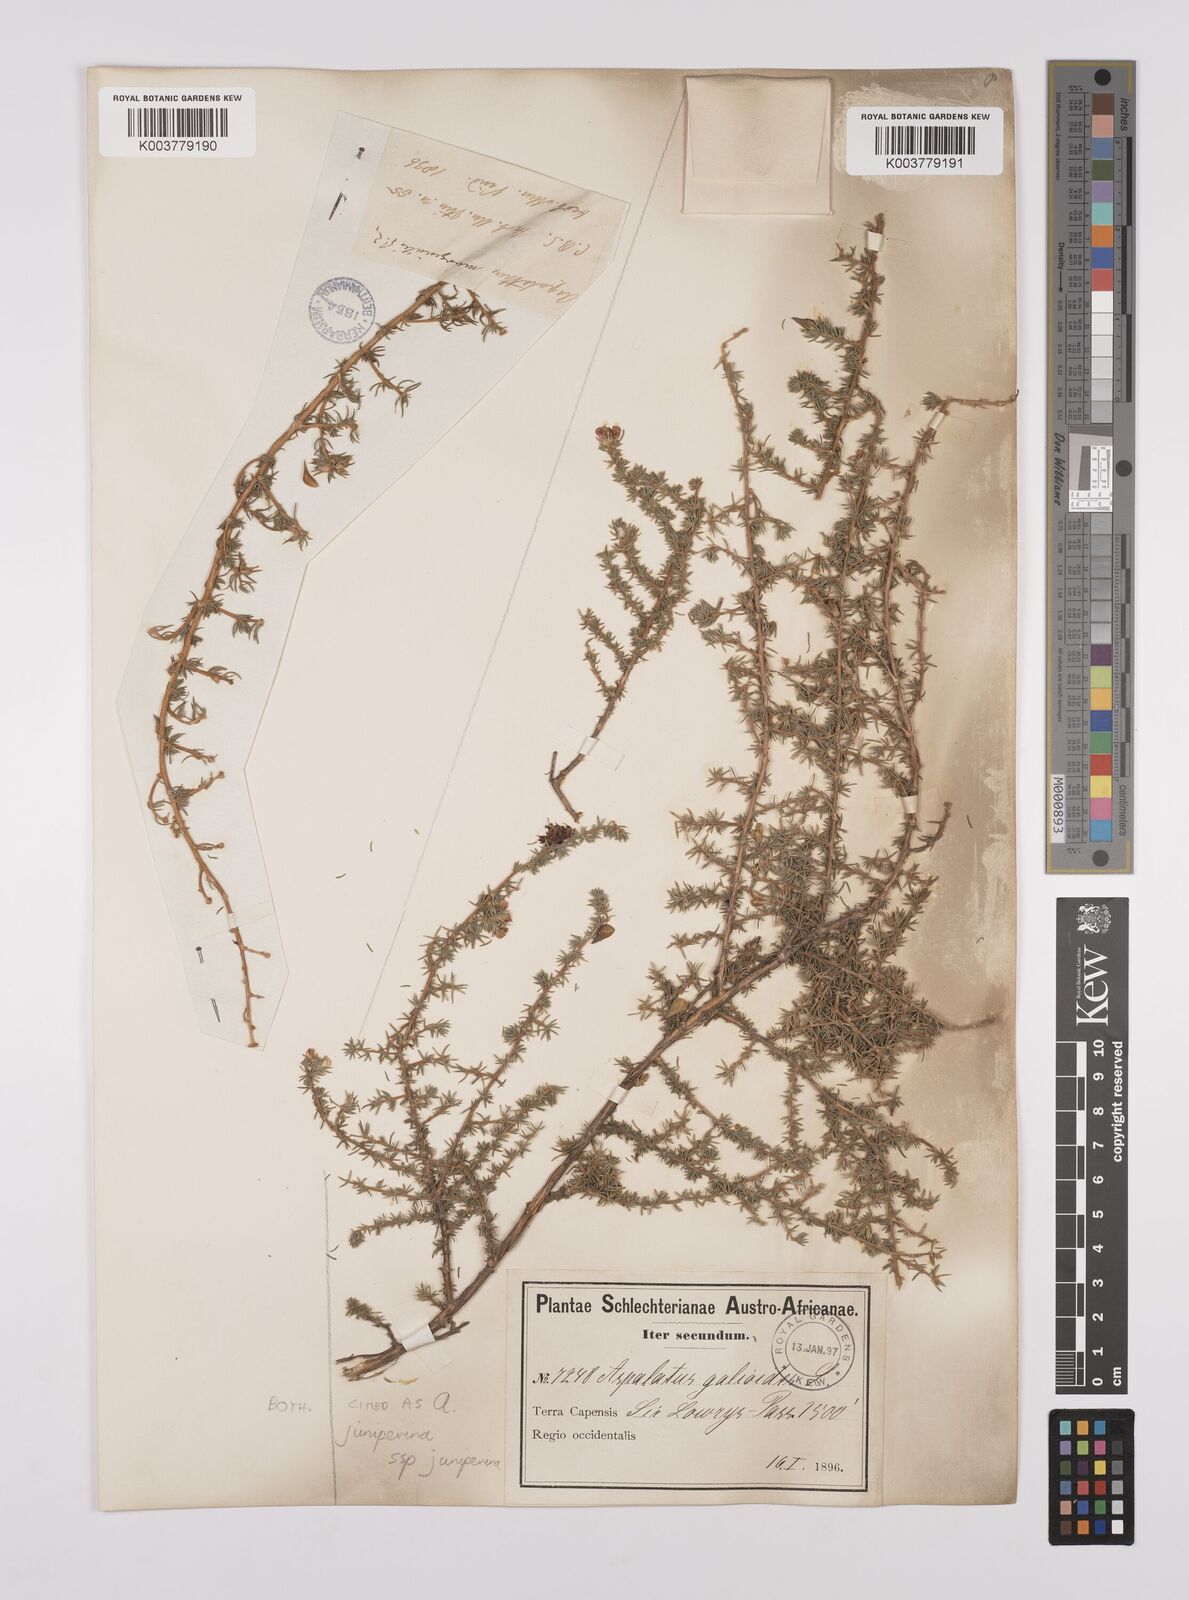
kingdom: Plantae
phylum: Tracheophyta
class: Magnoliopsida
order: Fabales
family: Fabaceae
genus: Aspalathus
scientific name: Aspalathus juniperina
